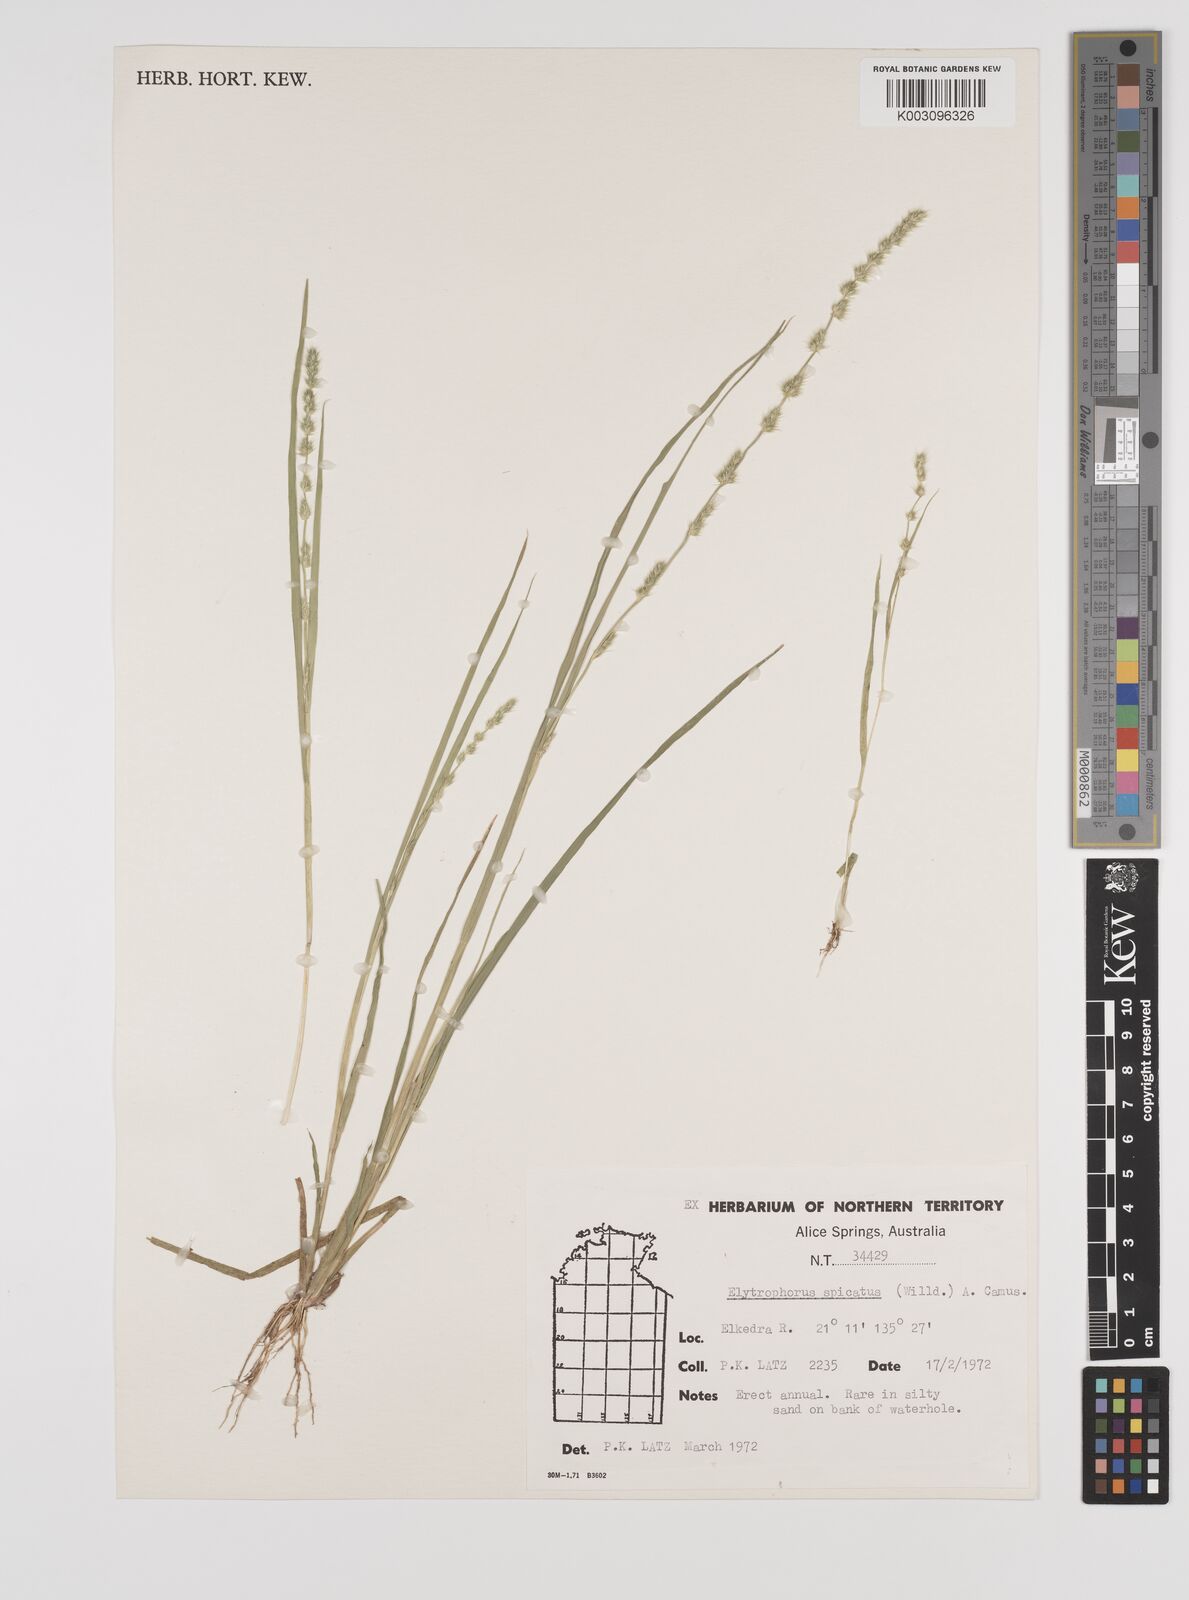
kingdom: Plantae
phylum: Tracheophyta
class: Liliopsida
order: Poales
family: Poaceae
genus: Elytrophorus
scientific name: Elytrophorus spicatus
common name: Spike grass
